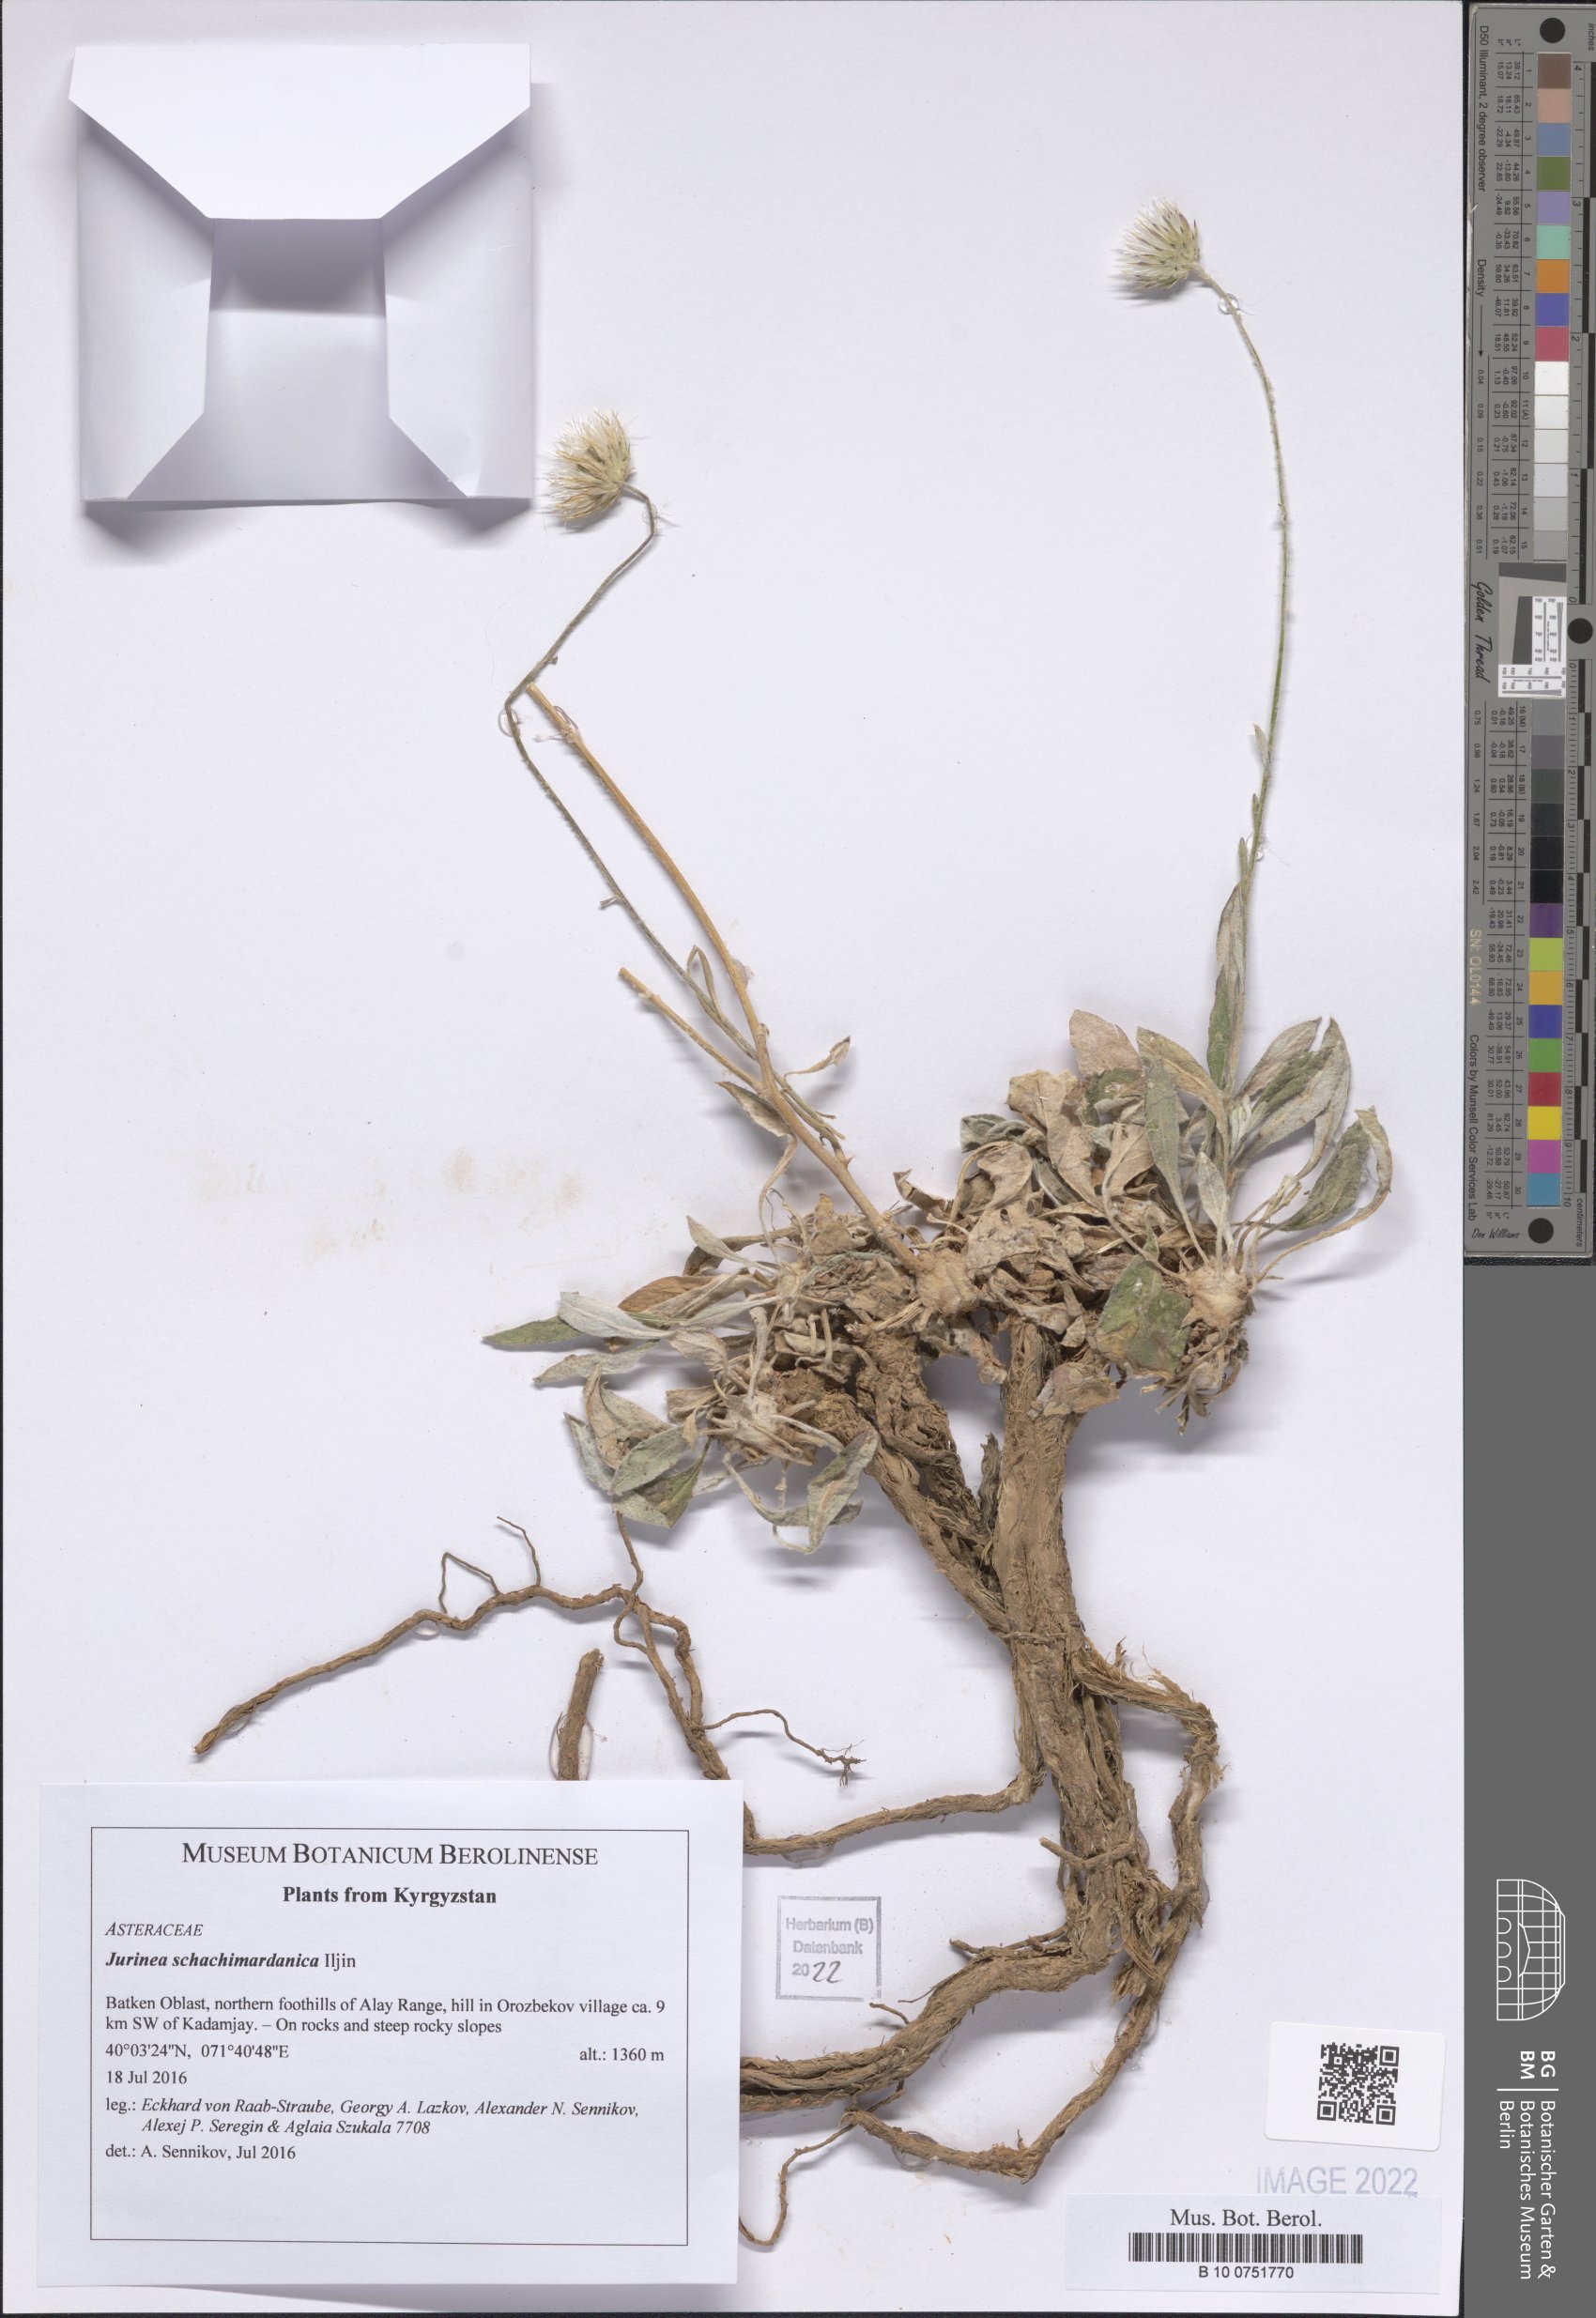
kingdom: Plantae
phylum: Tracheophyta
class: Magnoliopsida
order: Asterales
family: Asteraceae
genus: Jurinea
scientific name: Jurinea schachimardanica
